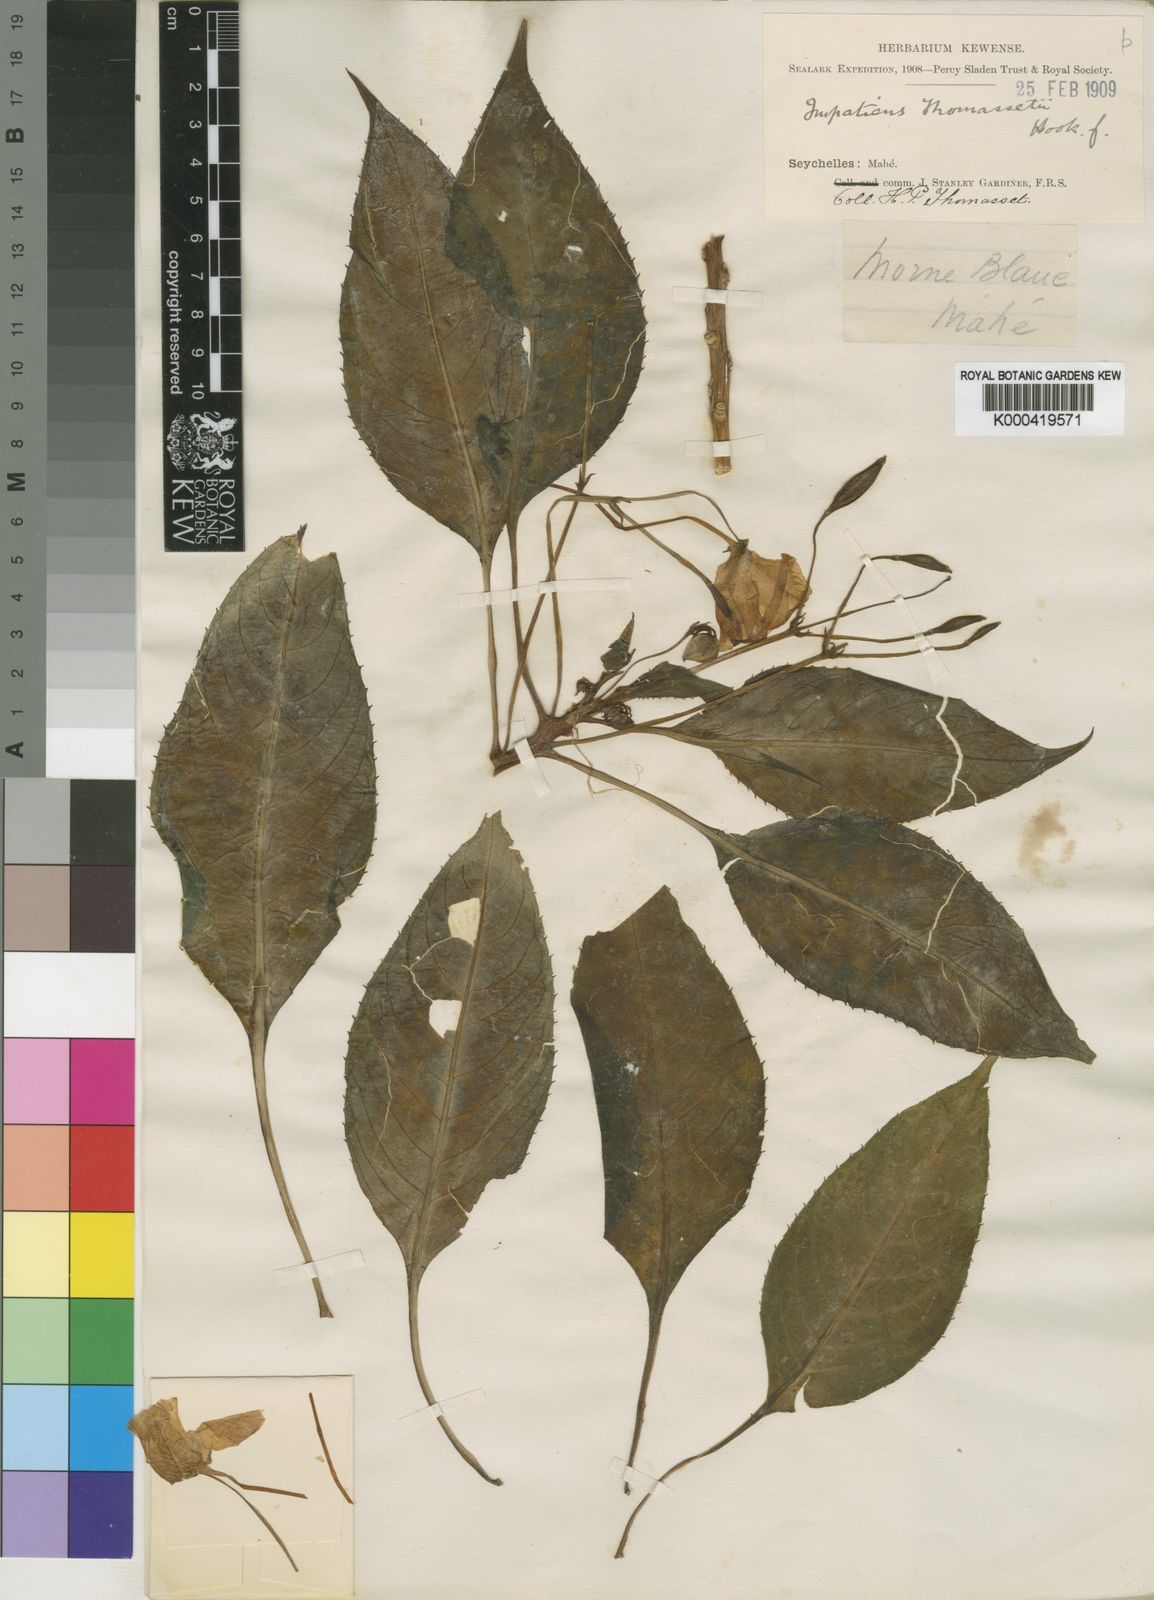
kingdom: Plantae
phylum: Tracheophyta
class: Magnoliopsida
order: Ericales
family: Balsaminaceae
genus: Impatiens
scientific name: Impatiens gordonii
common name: Seychelles bizzie lizzie
